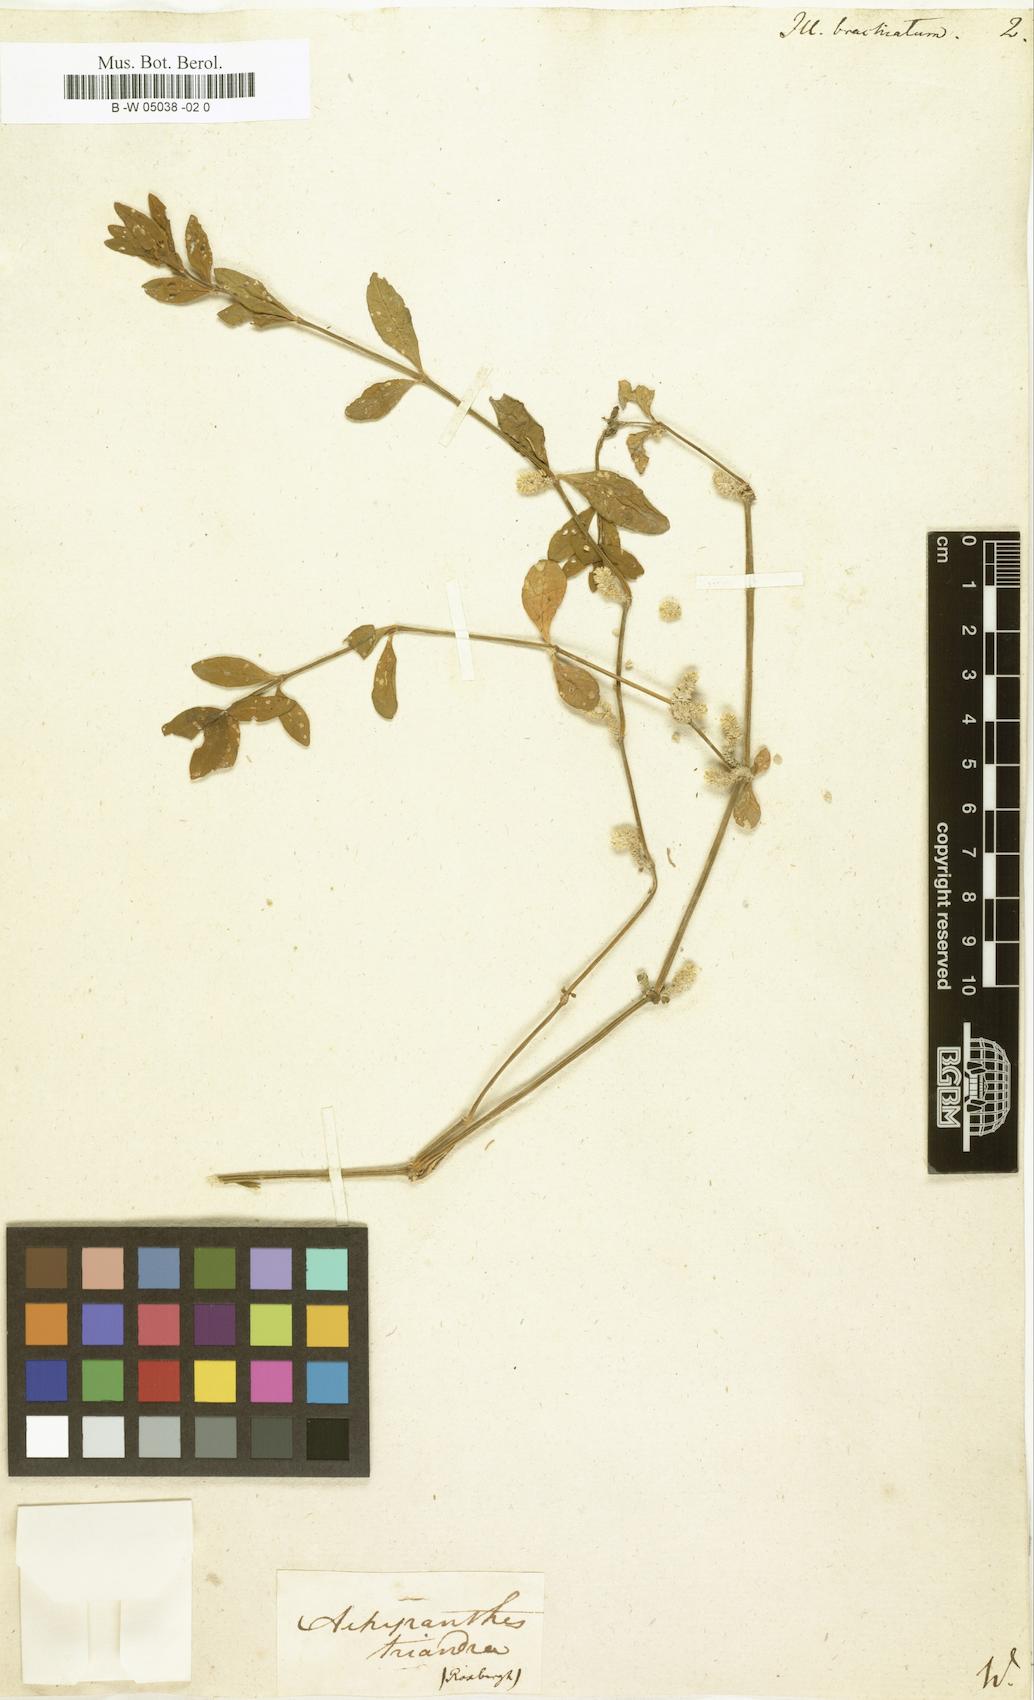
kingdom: Plantae
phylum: Tracheophyta
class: Magnoliopsida
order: Caryophyllales
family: Amaranthaceae
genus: Nothosaerva
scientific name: Nothosaerva brachiata
